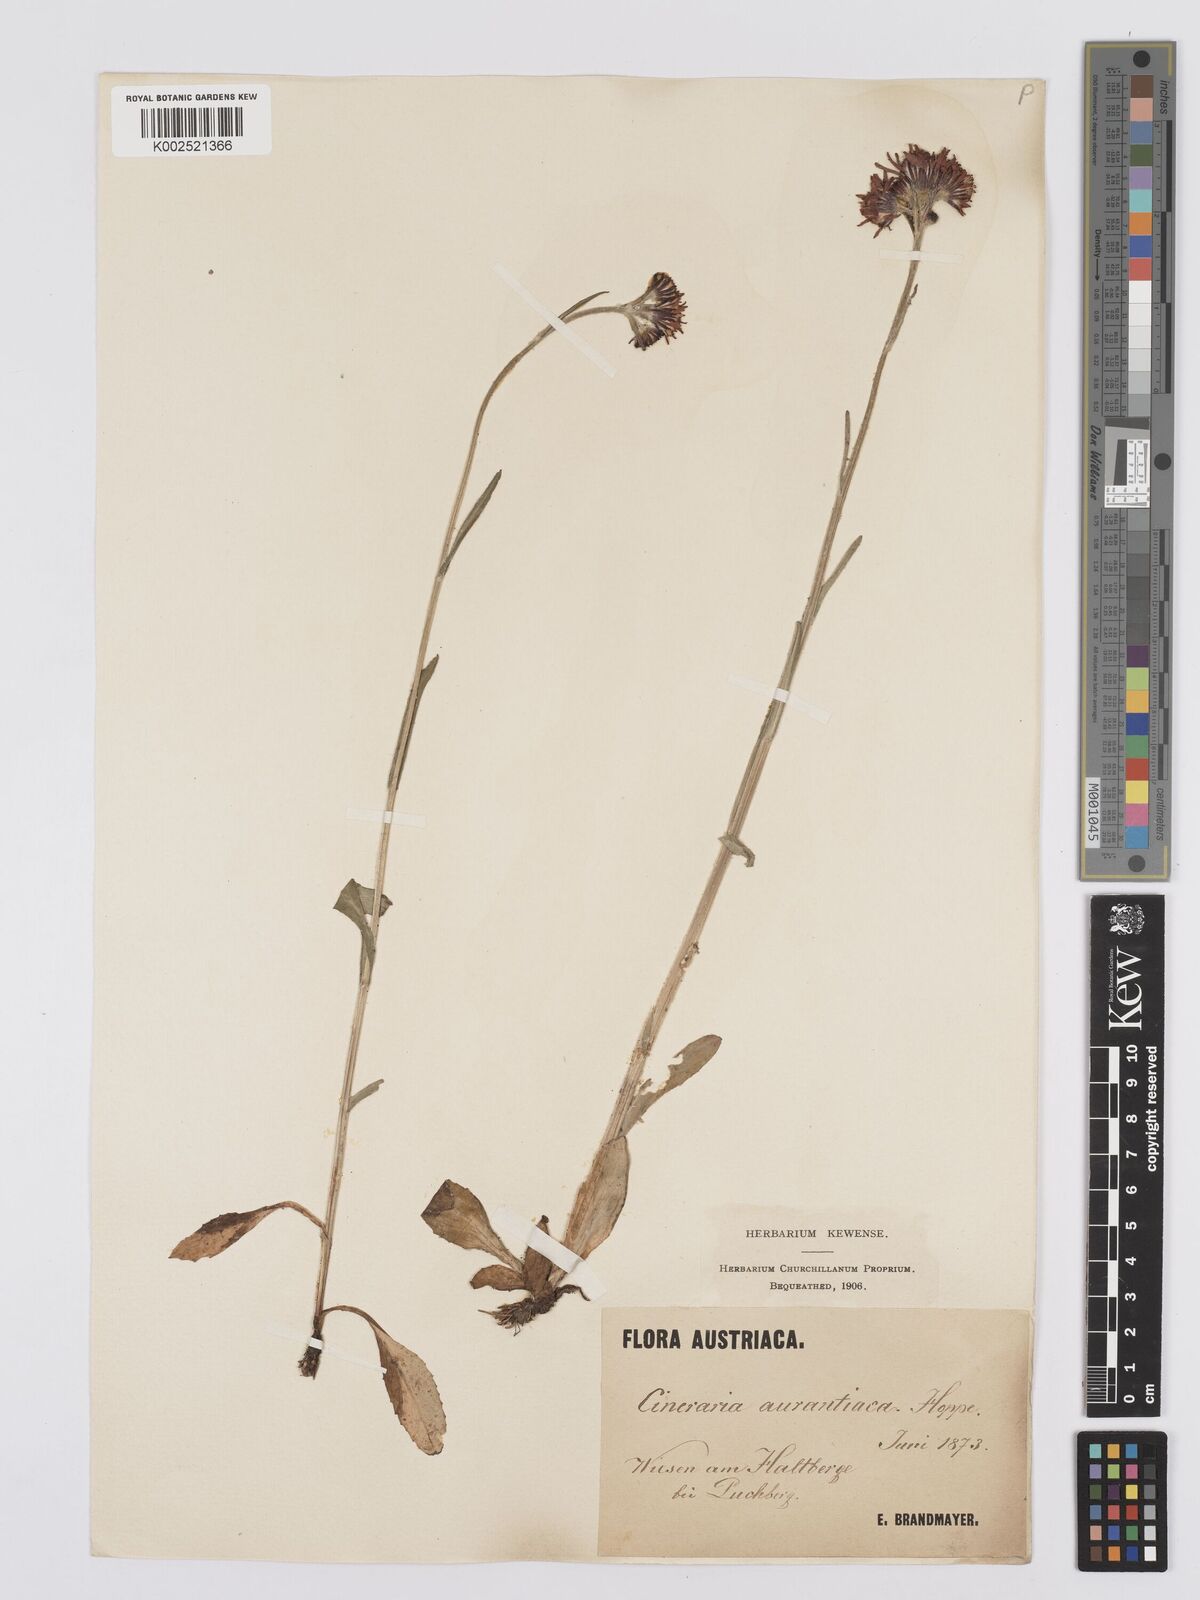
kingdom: Plantae
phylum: Tracheophyta
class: Magnoliopsida
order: Asterales
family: Asteraceae
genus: Tephroseris
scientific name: Tephroseris aurantiaca
